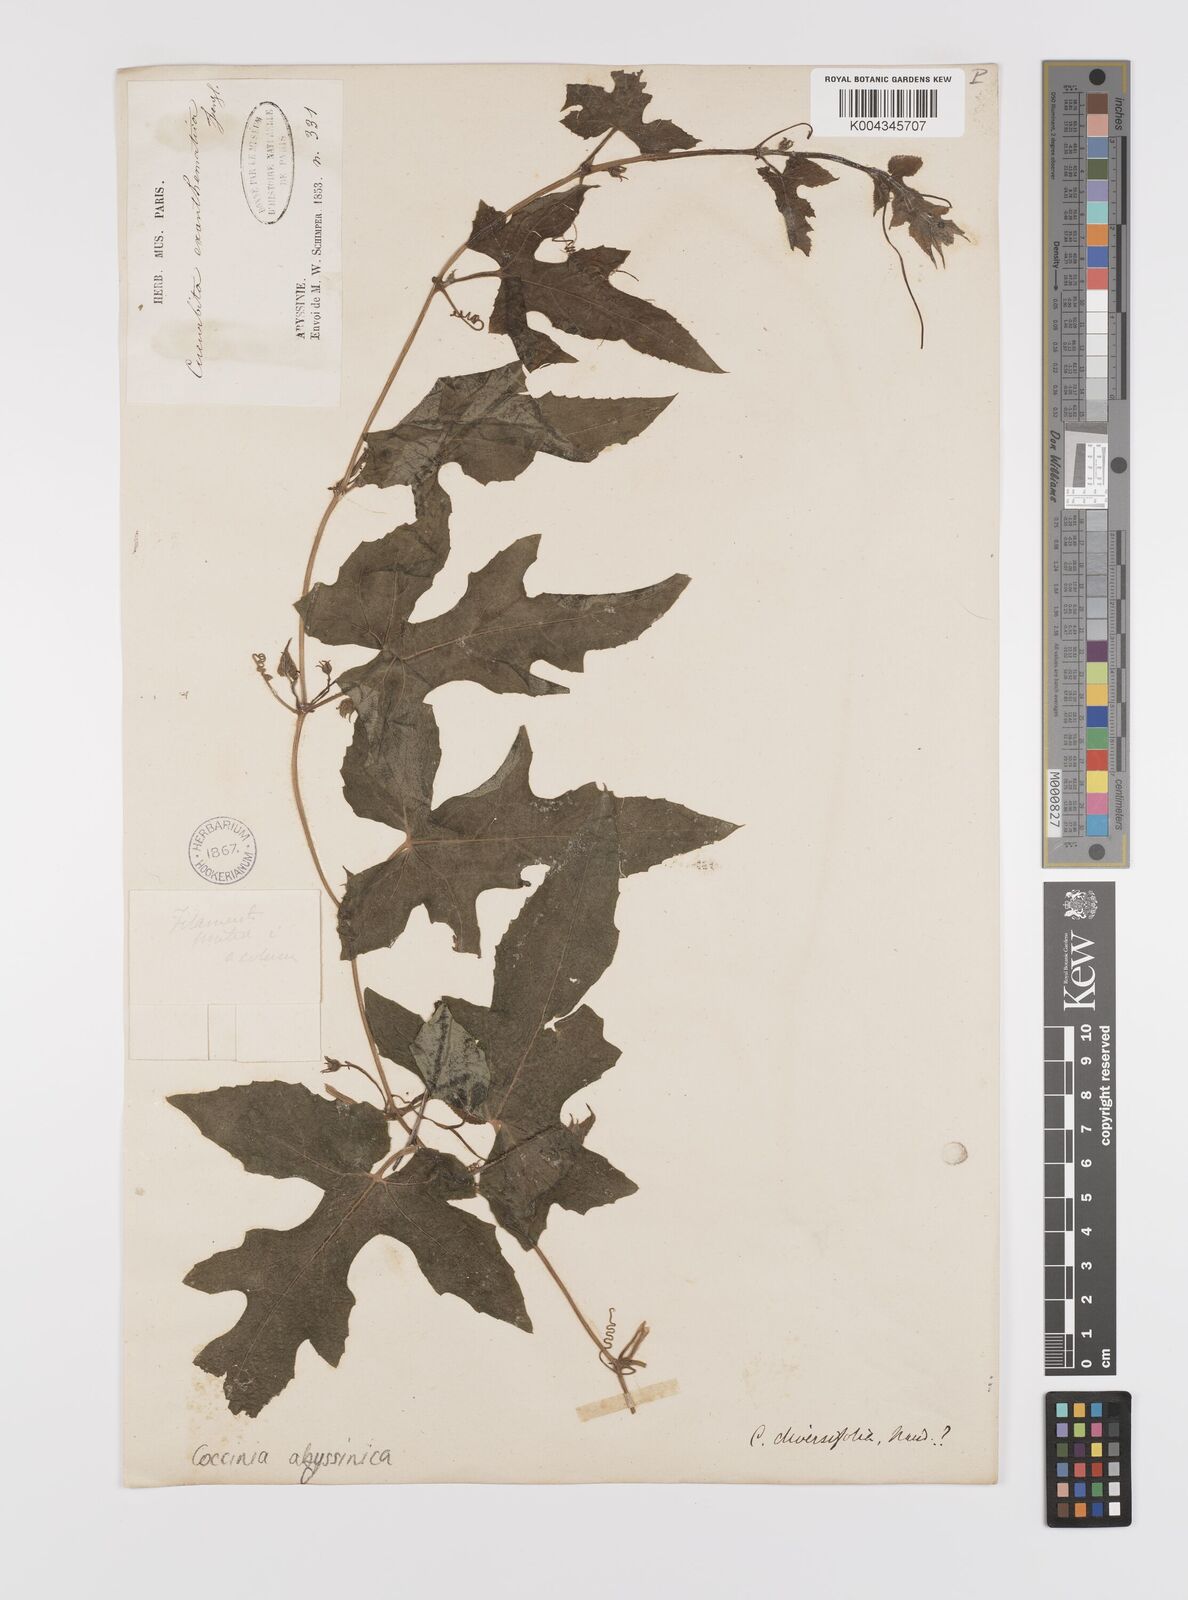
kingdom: Plantae
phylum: Tracheophyta
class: Magnoliopsida
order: Cucurbitales
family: Cucurbitaceae
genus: Coccinia
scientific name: Coccinia abyssinica
